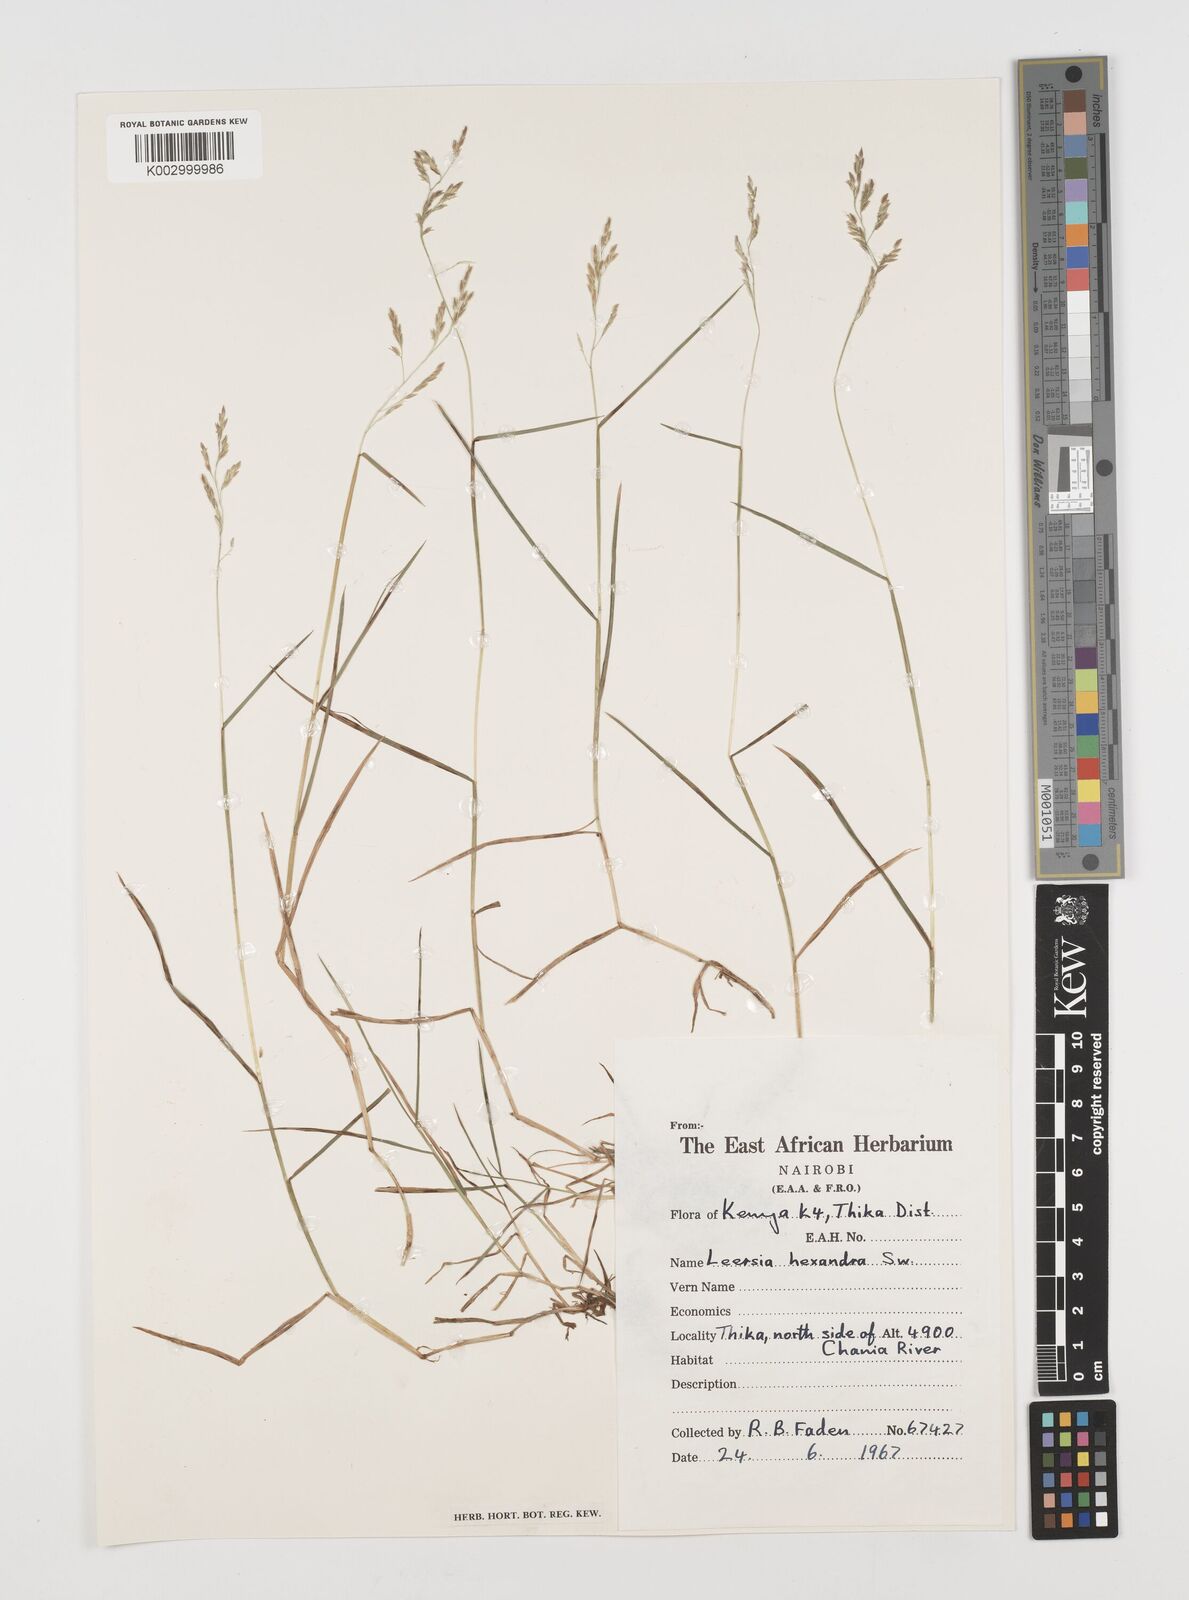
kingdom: Plantae
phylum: Tracheophyta
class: Liliopsida
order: Poales
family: Poaceae
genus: Leersia
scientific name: Leersia hexandra
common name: Southern cut grass
